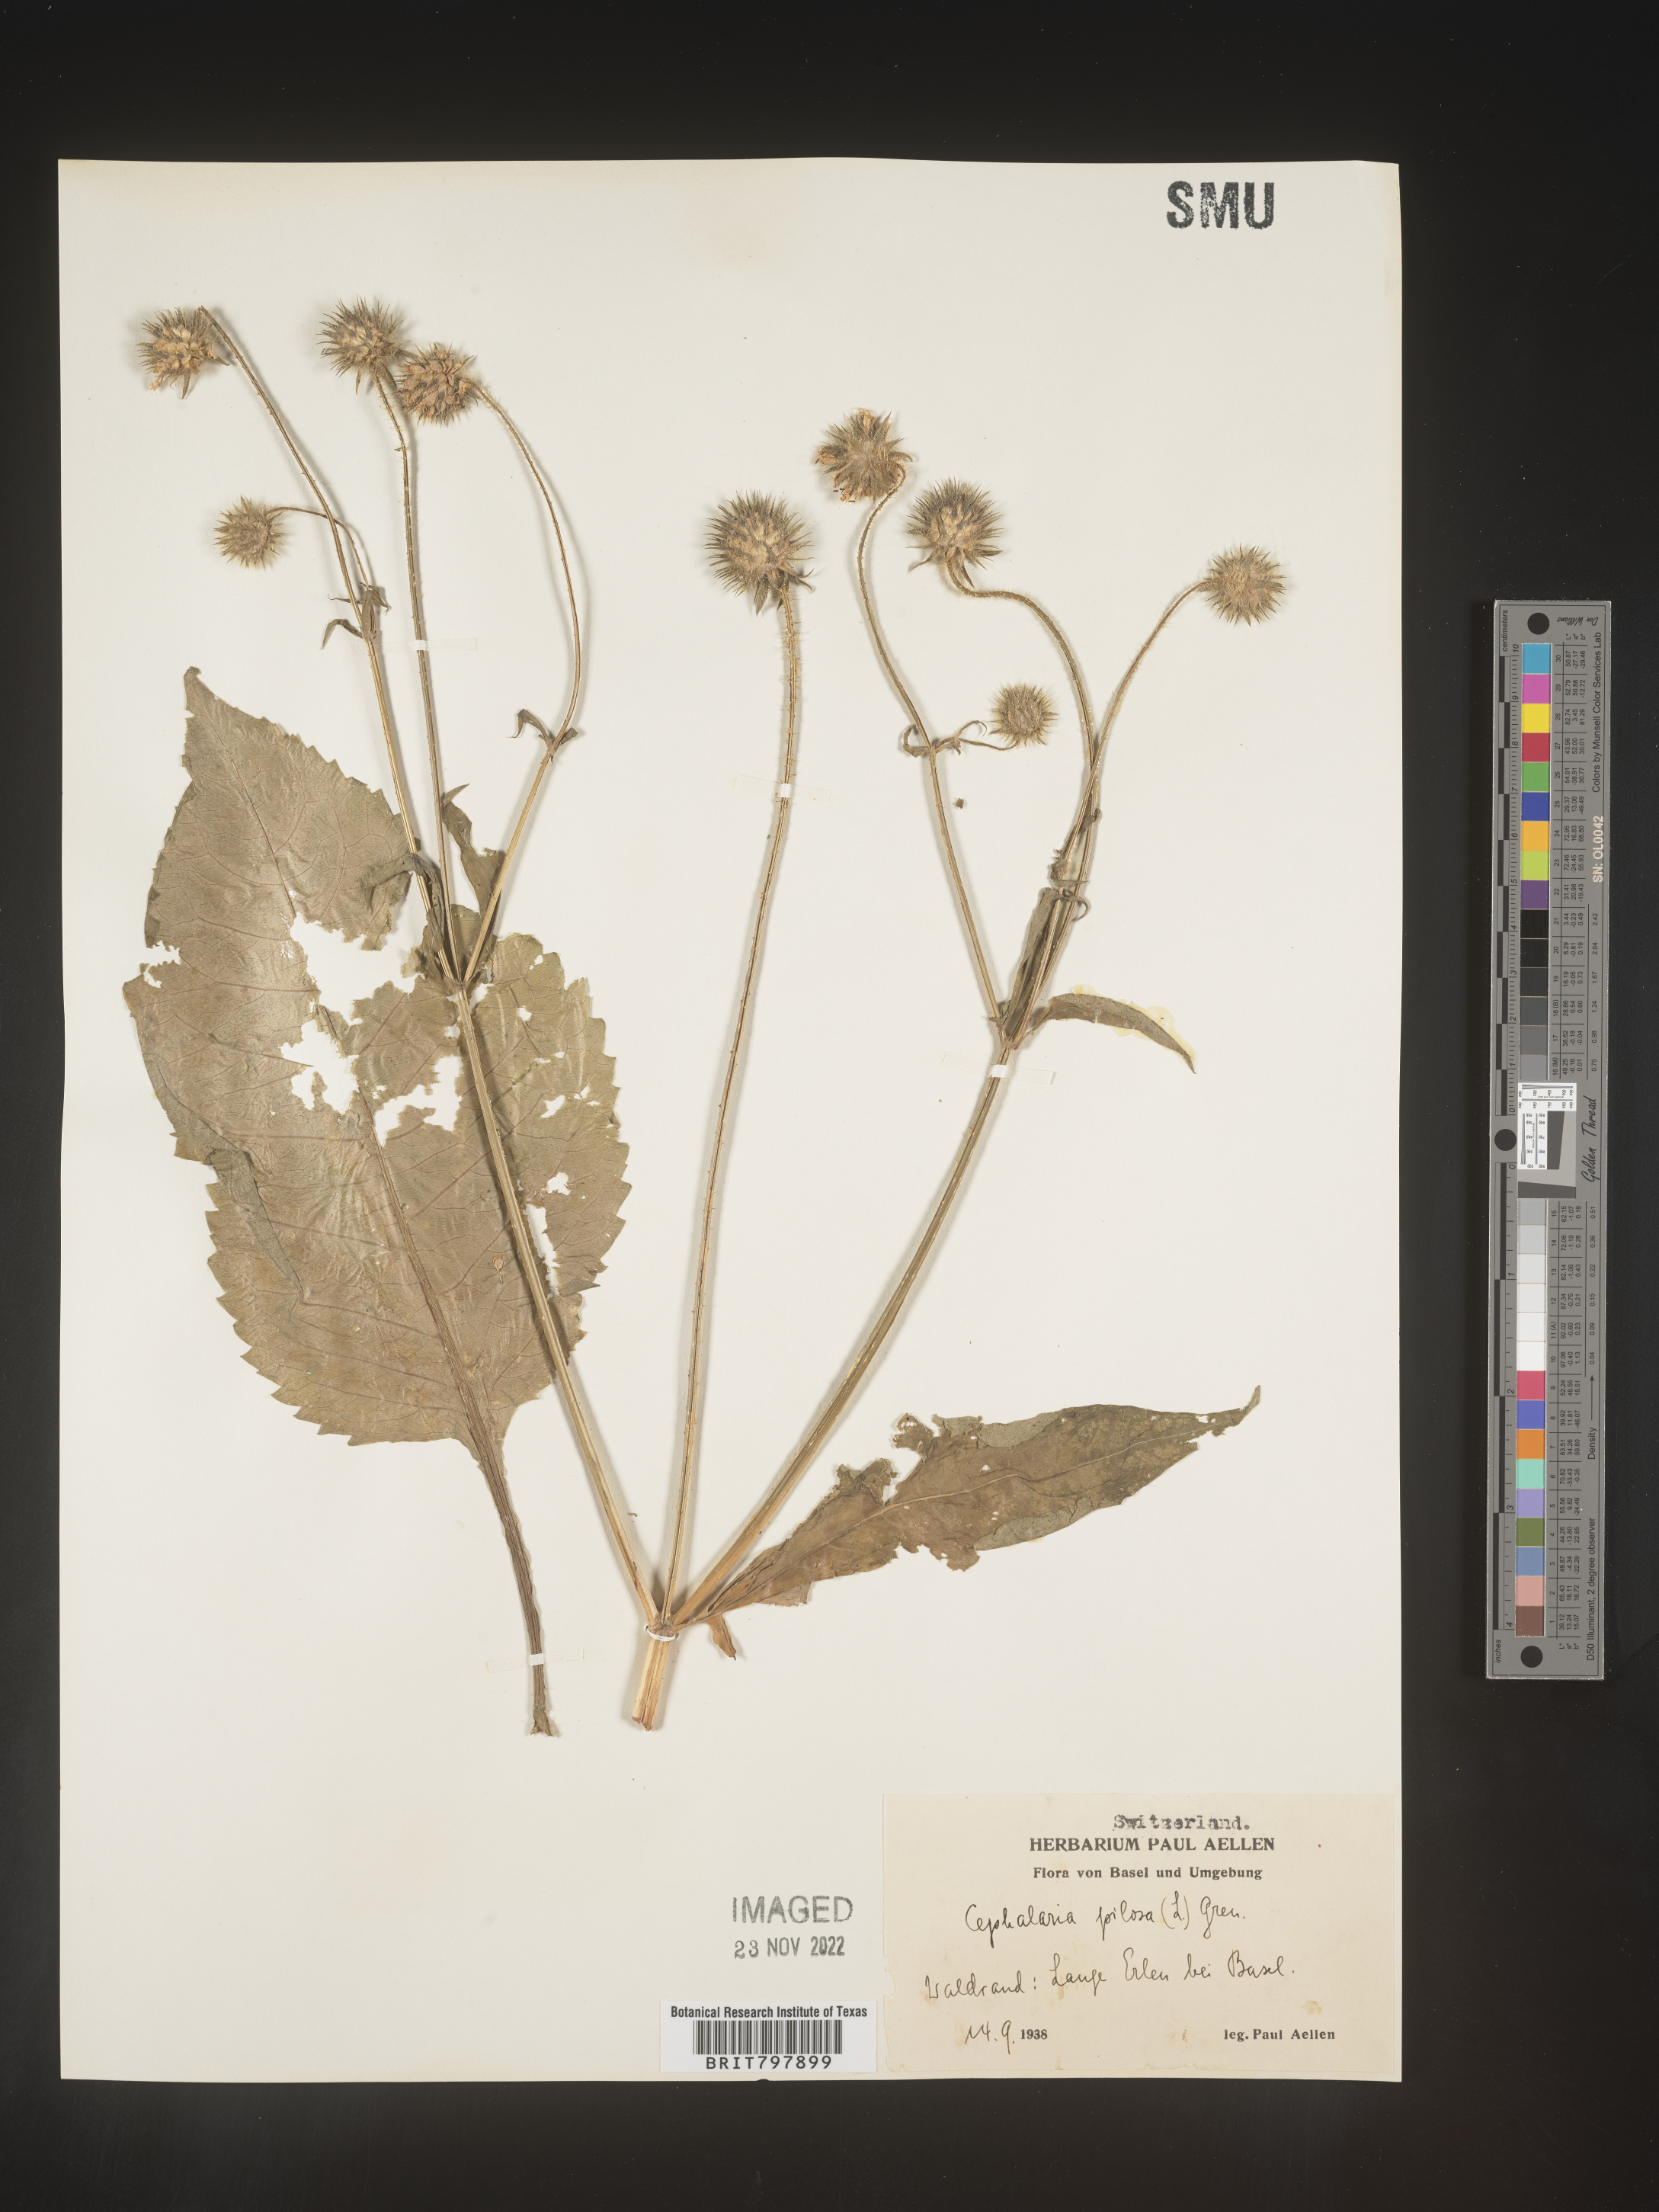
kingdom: Plantae
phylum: Tracheophyta
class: Magnoliopsida
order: Dipsacales
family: Caprifoliaceae
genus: Cephalaria
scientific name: Cephalaria
